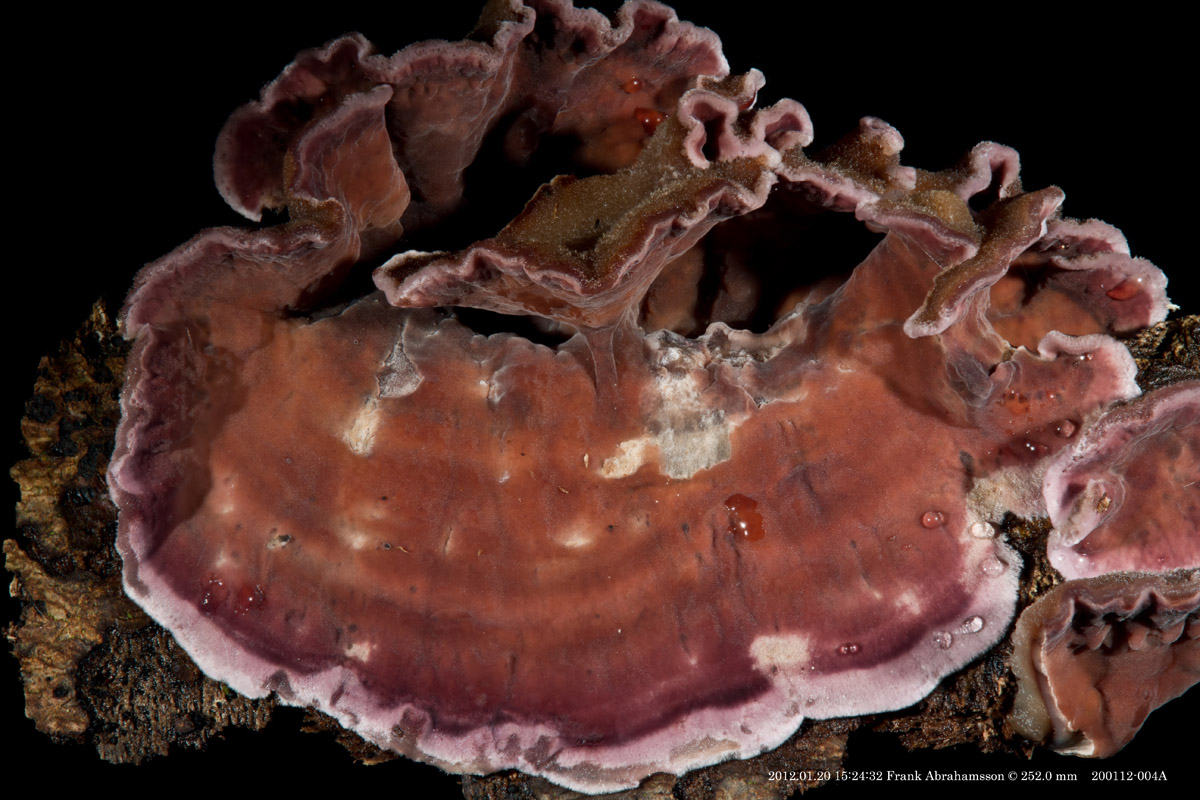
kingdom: Fungi
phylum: Basidiomycota
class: Agaricomycetes
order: Agaricales
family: Cyphellaceae
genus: Chondrostereum
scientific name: Chondrostereum purpureum
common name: purpurlædersvamp
